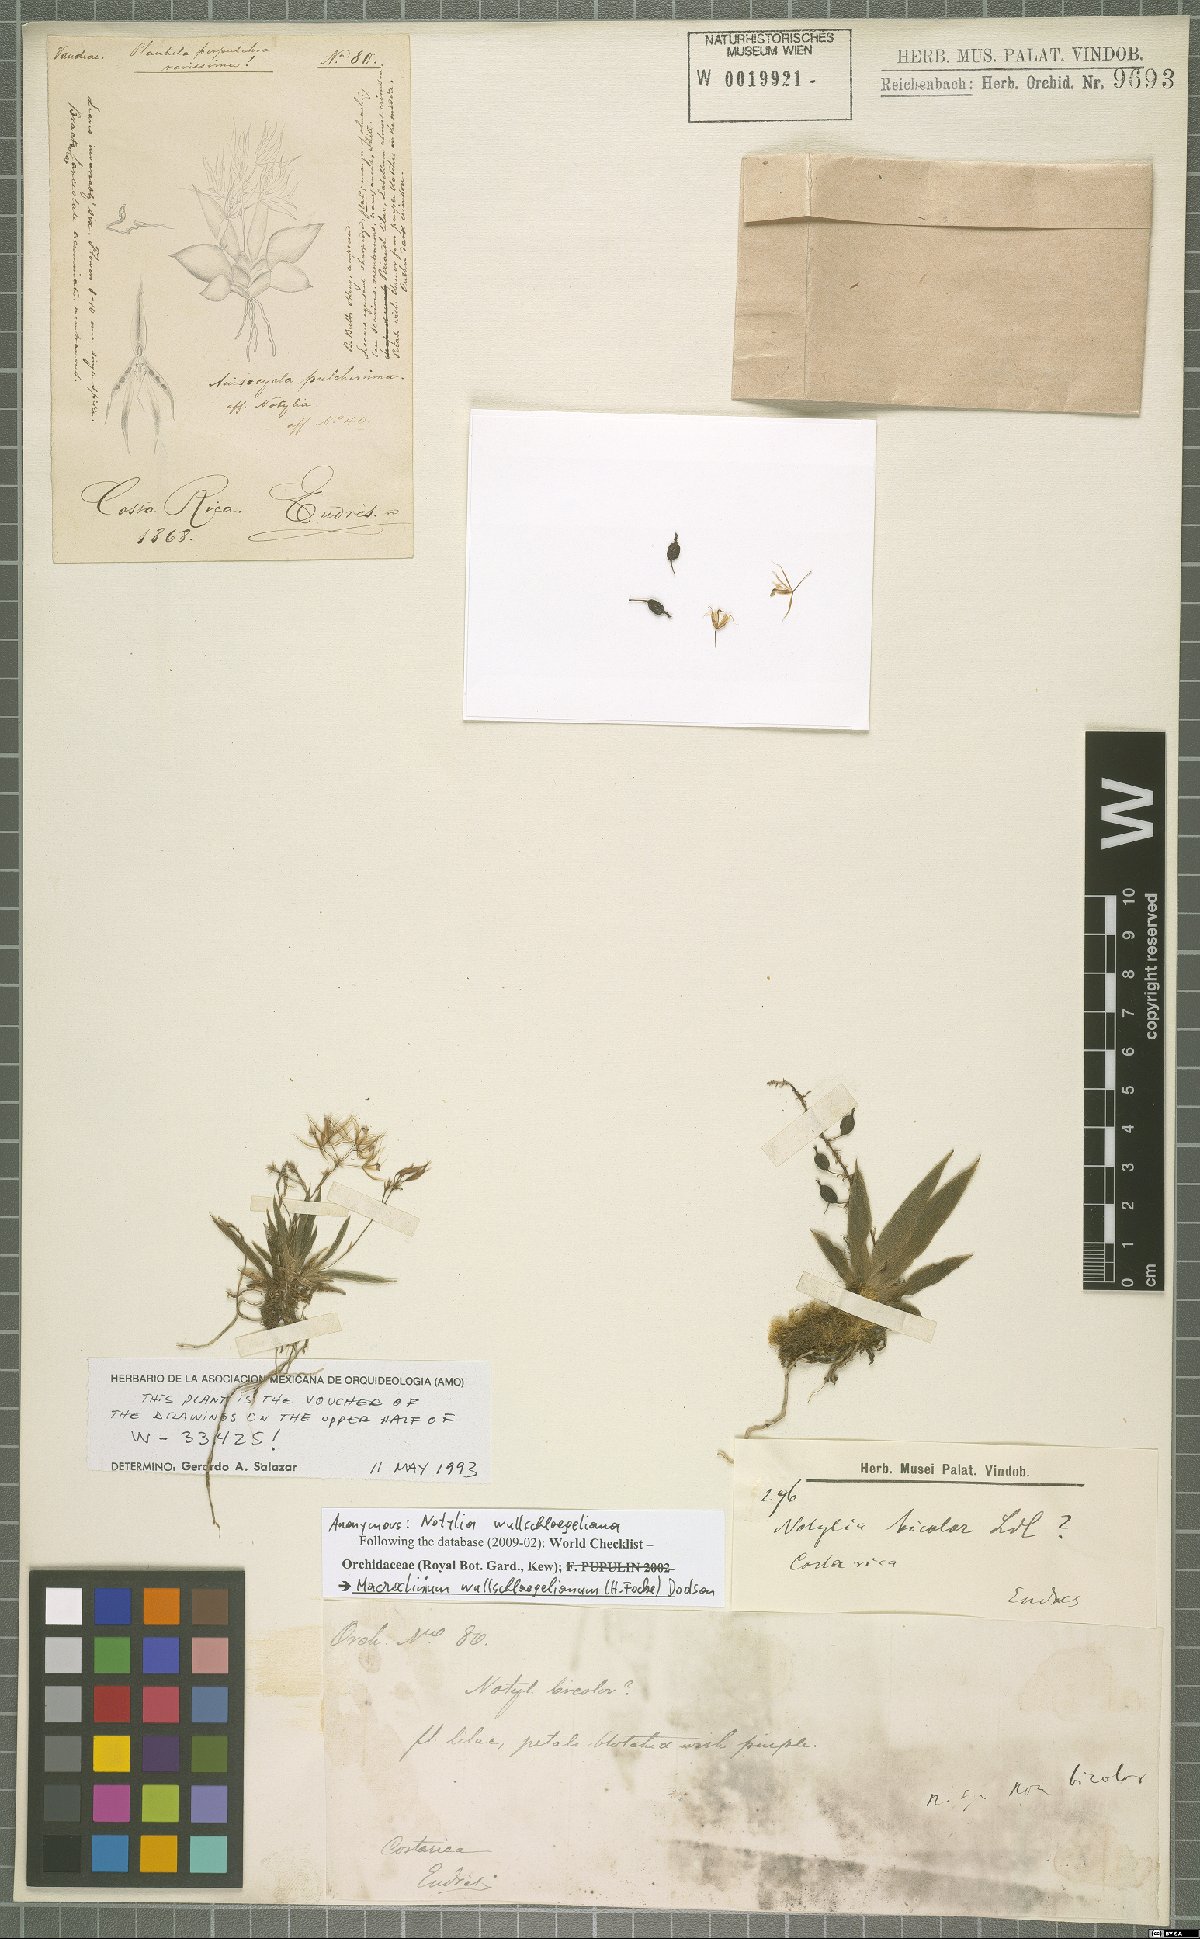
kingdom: Plantae
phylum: Tracheophyta
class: Liliopsida
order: Asparagales
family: Orchidaceae
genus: Macroclinium
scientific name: Macroclinium wullschlaegelianum
